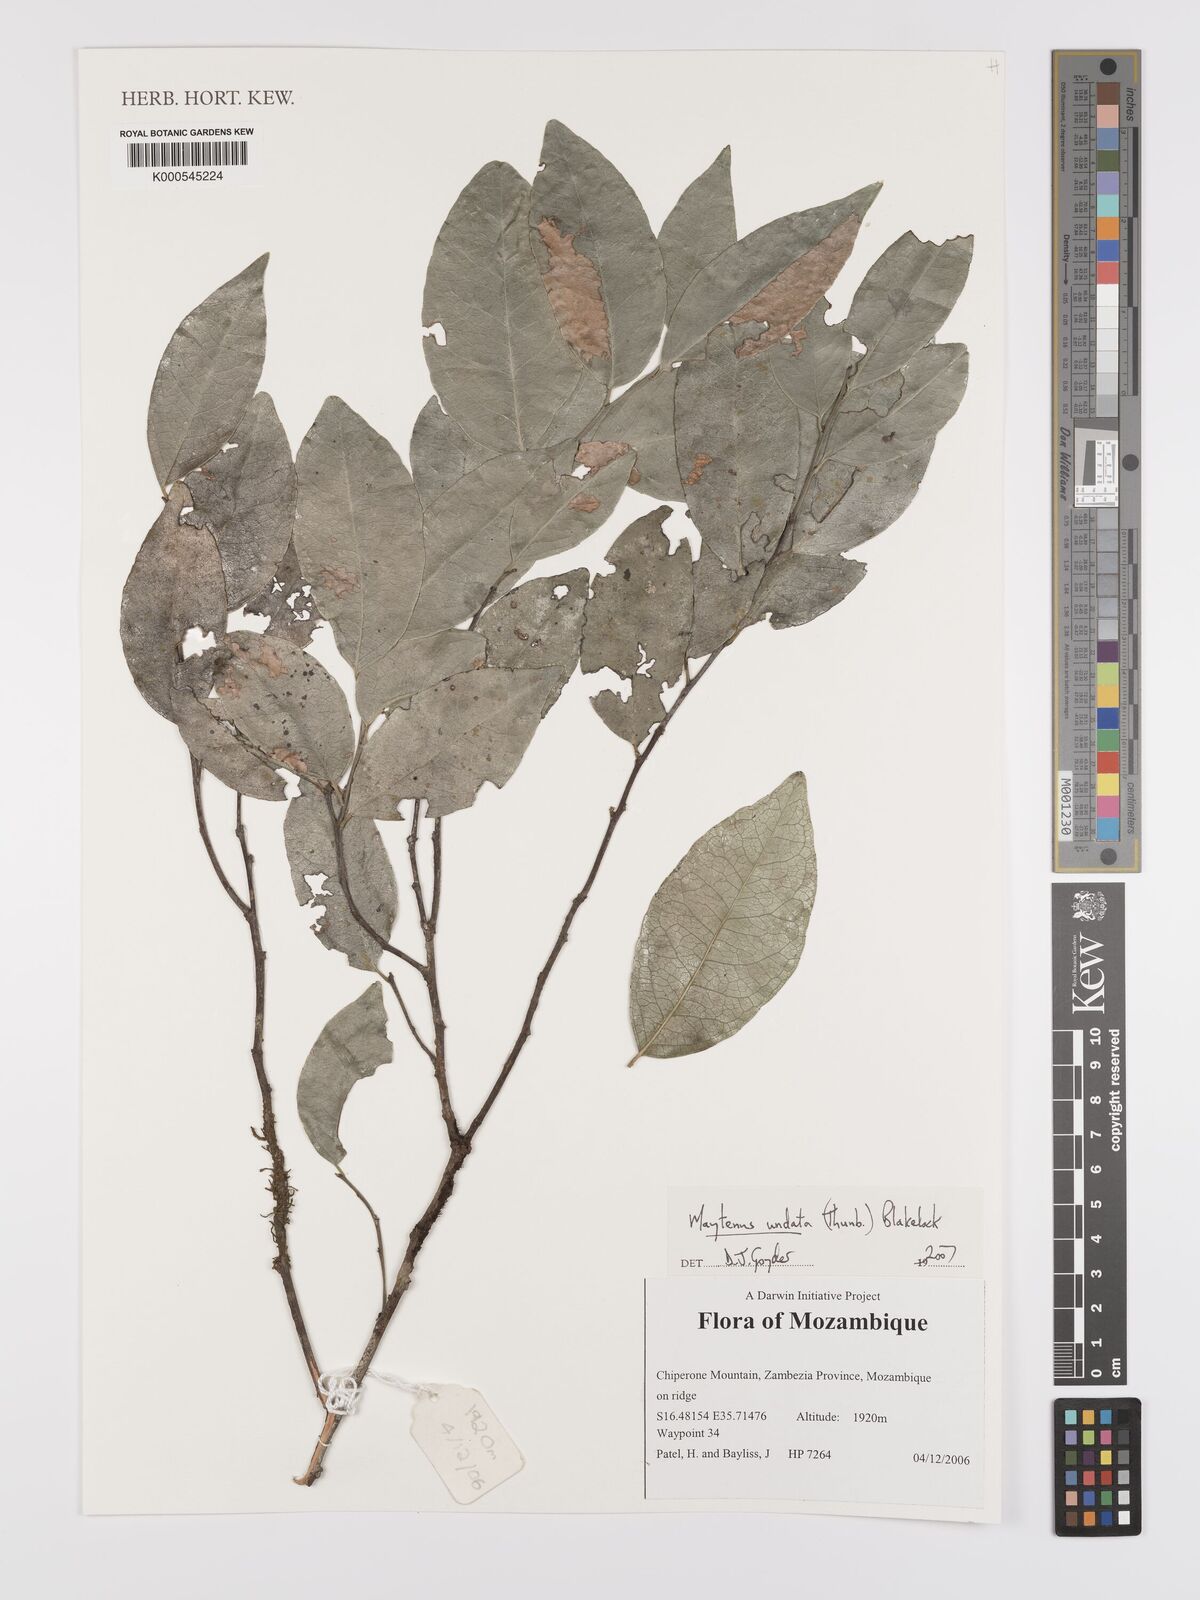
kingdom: Plantae
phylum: Tracheophyta
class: Magnoliopsida
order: Celastrales
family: Celastraceae
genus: Gymnosporia
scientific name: Gymnosporia undata
